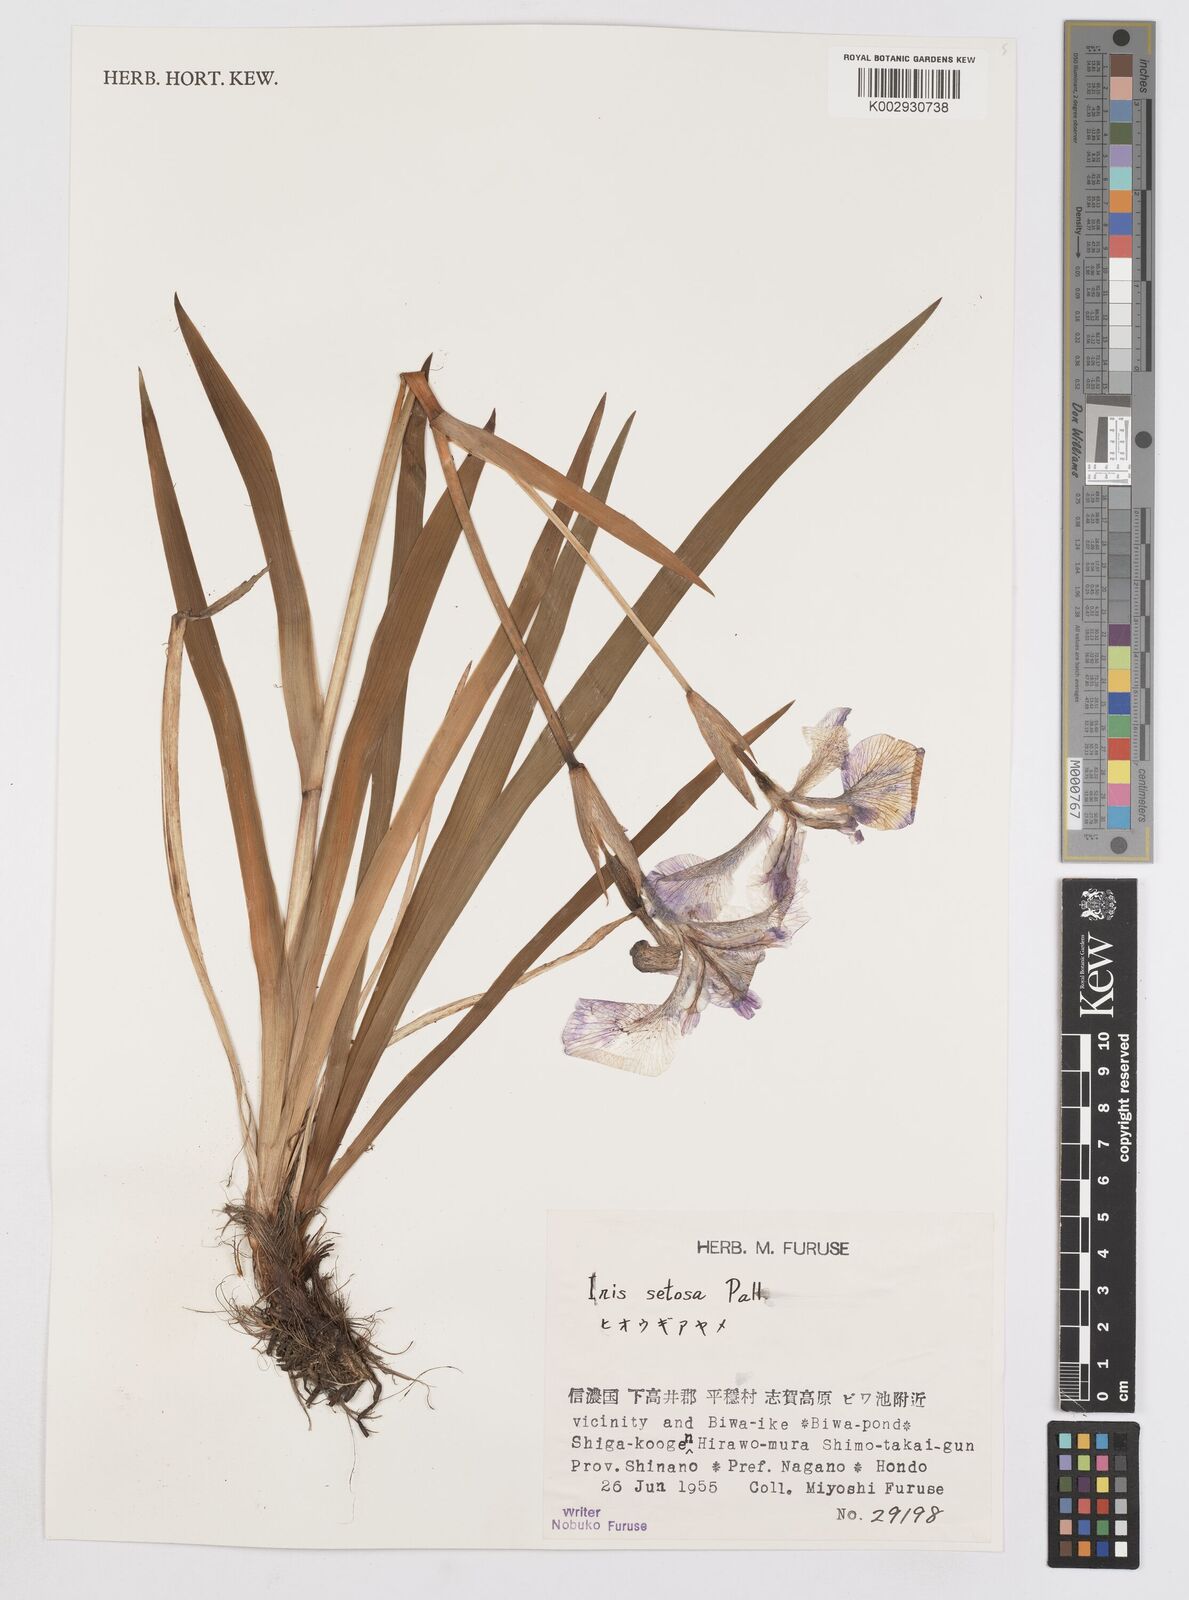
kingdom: Plantae
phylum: Tracheophyta
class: Liliopsida
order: Asparagales
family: Iridaceae
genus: Iris
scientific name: Iris setosa
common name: Arctic blue flag
